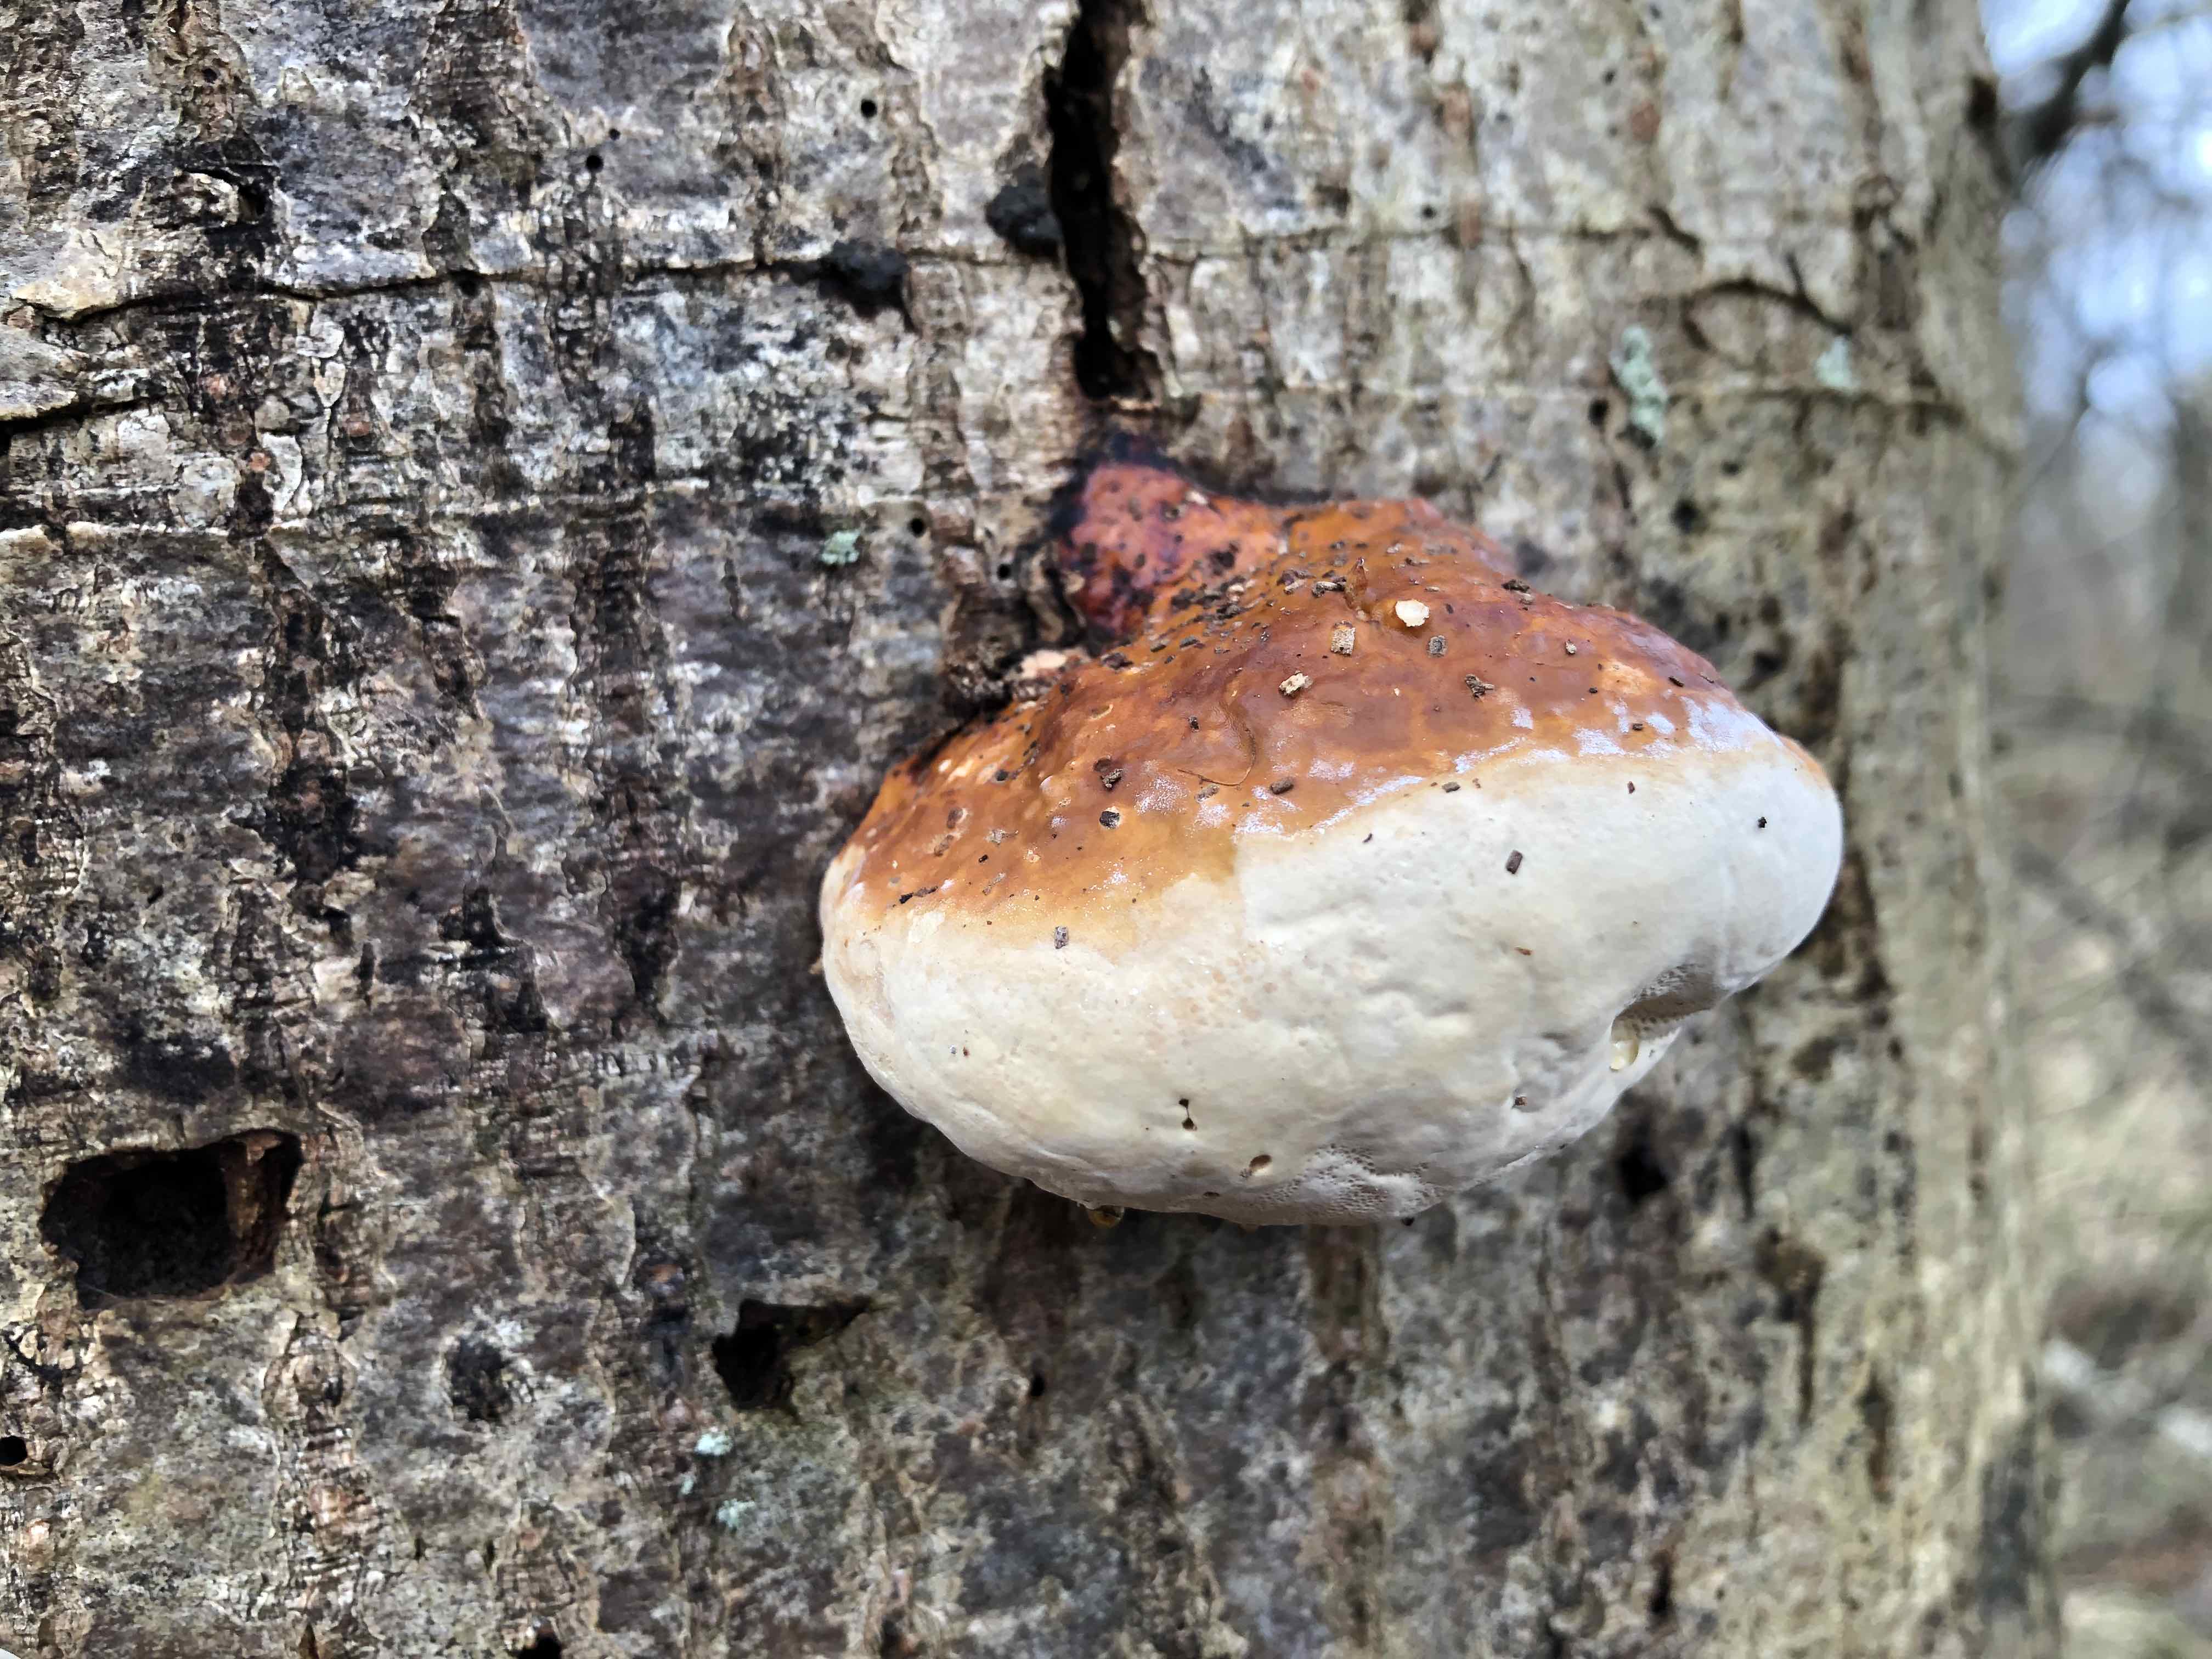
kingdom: Fungi
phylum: Basidiomycota
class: Agaricomycetes
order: Polyporales
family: Fomitopsidaceae
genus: Fomitopsis
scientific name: Fomitopsis pinicola
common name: randbæltet hovporesvamp
